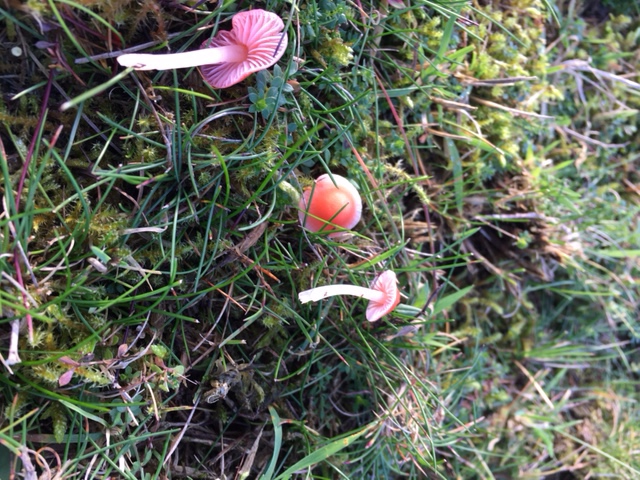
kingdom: Fungi
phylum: Basidiomycota
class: Agaricomycetes
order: Agaricales
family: Mycenaceae
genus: Atheniella
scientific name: Atheniella adonis
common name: rønnerød huesvamp
